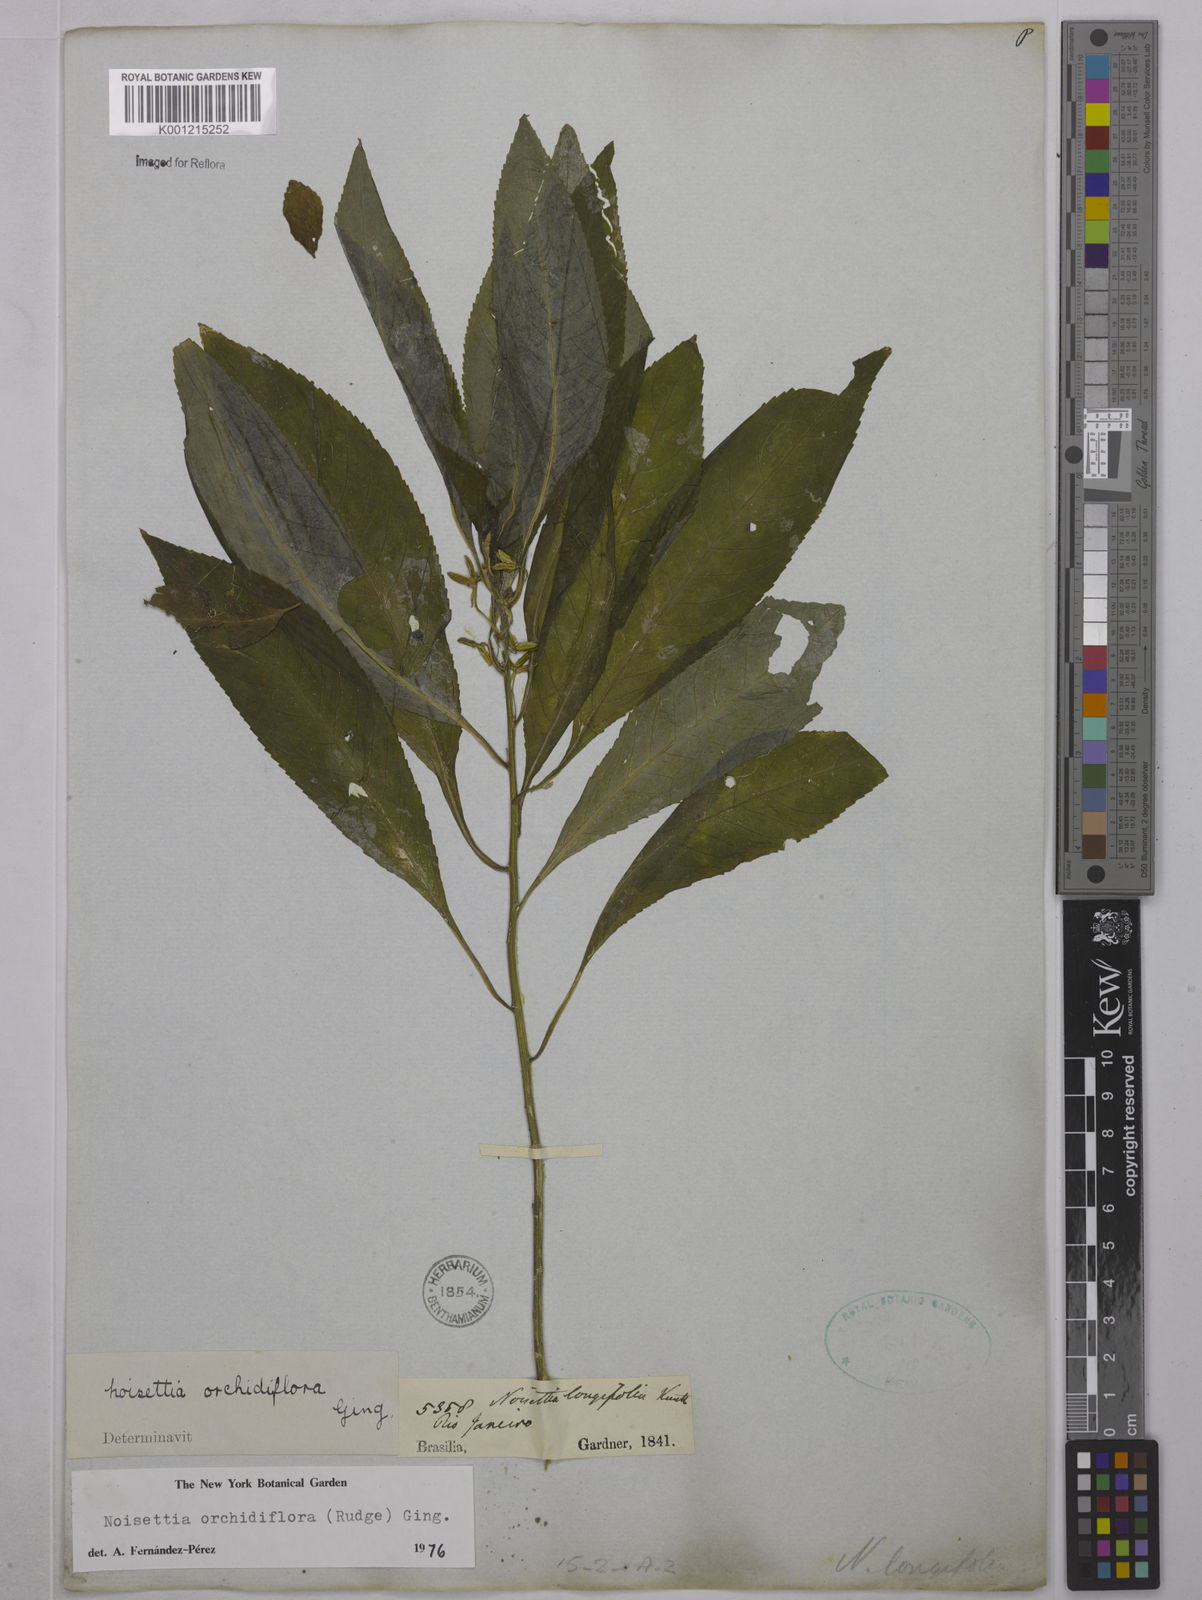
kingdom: Plantae
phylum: Tracheophyta
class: Magnoliopsida
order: Malpighiales
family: Violaceae
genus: Noisettia
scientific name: Noisettia orchidiflora
